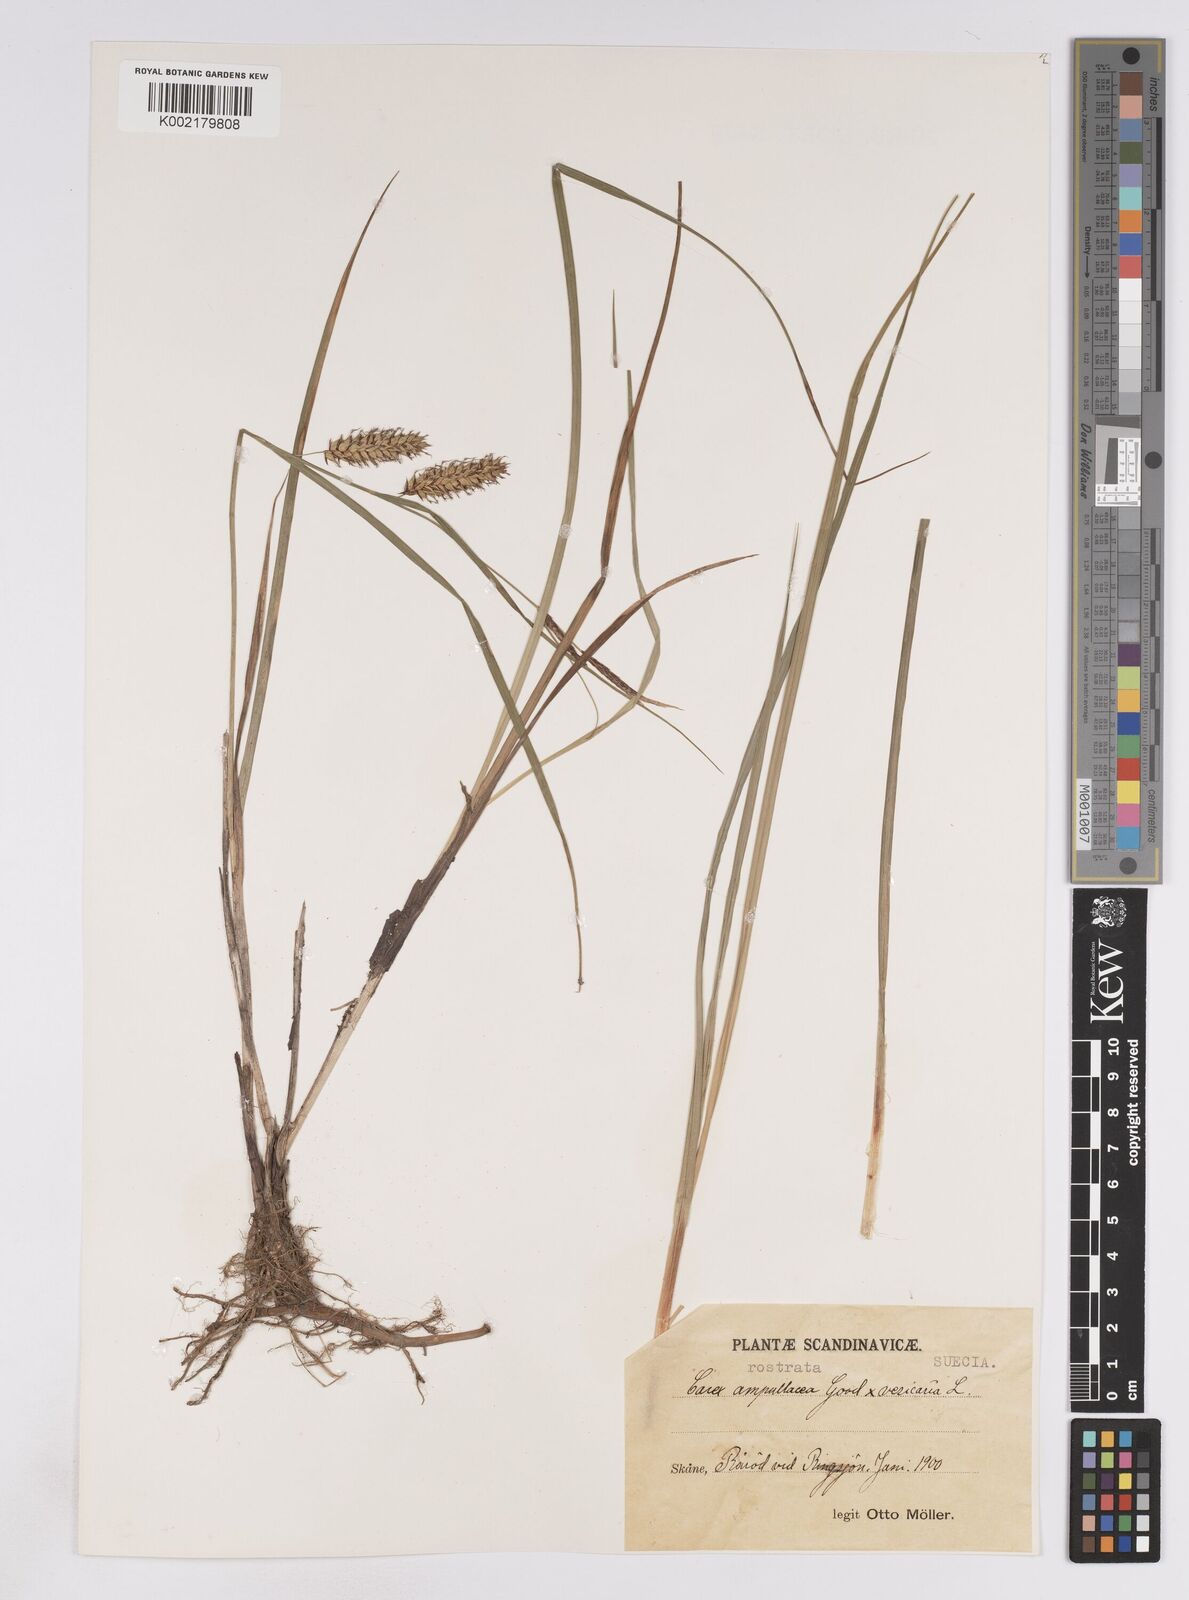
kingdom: Plantae
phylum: Tracheophyta
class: Liliopsida
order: Poales
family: Cyperaceae
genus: Carex
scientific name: Carex rostrata
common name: Bottle sedge
